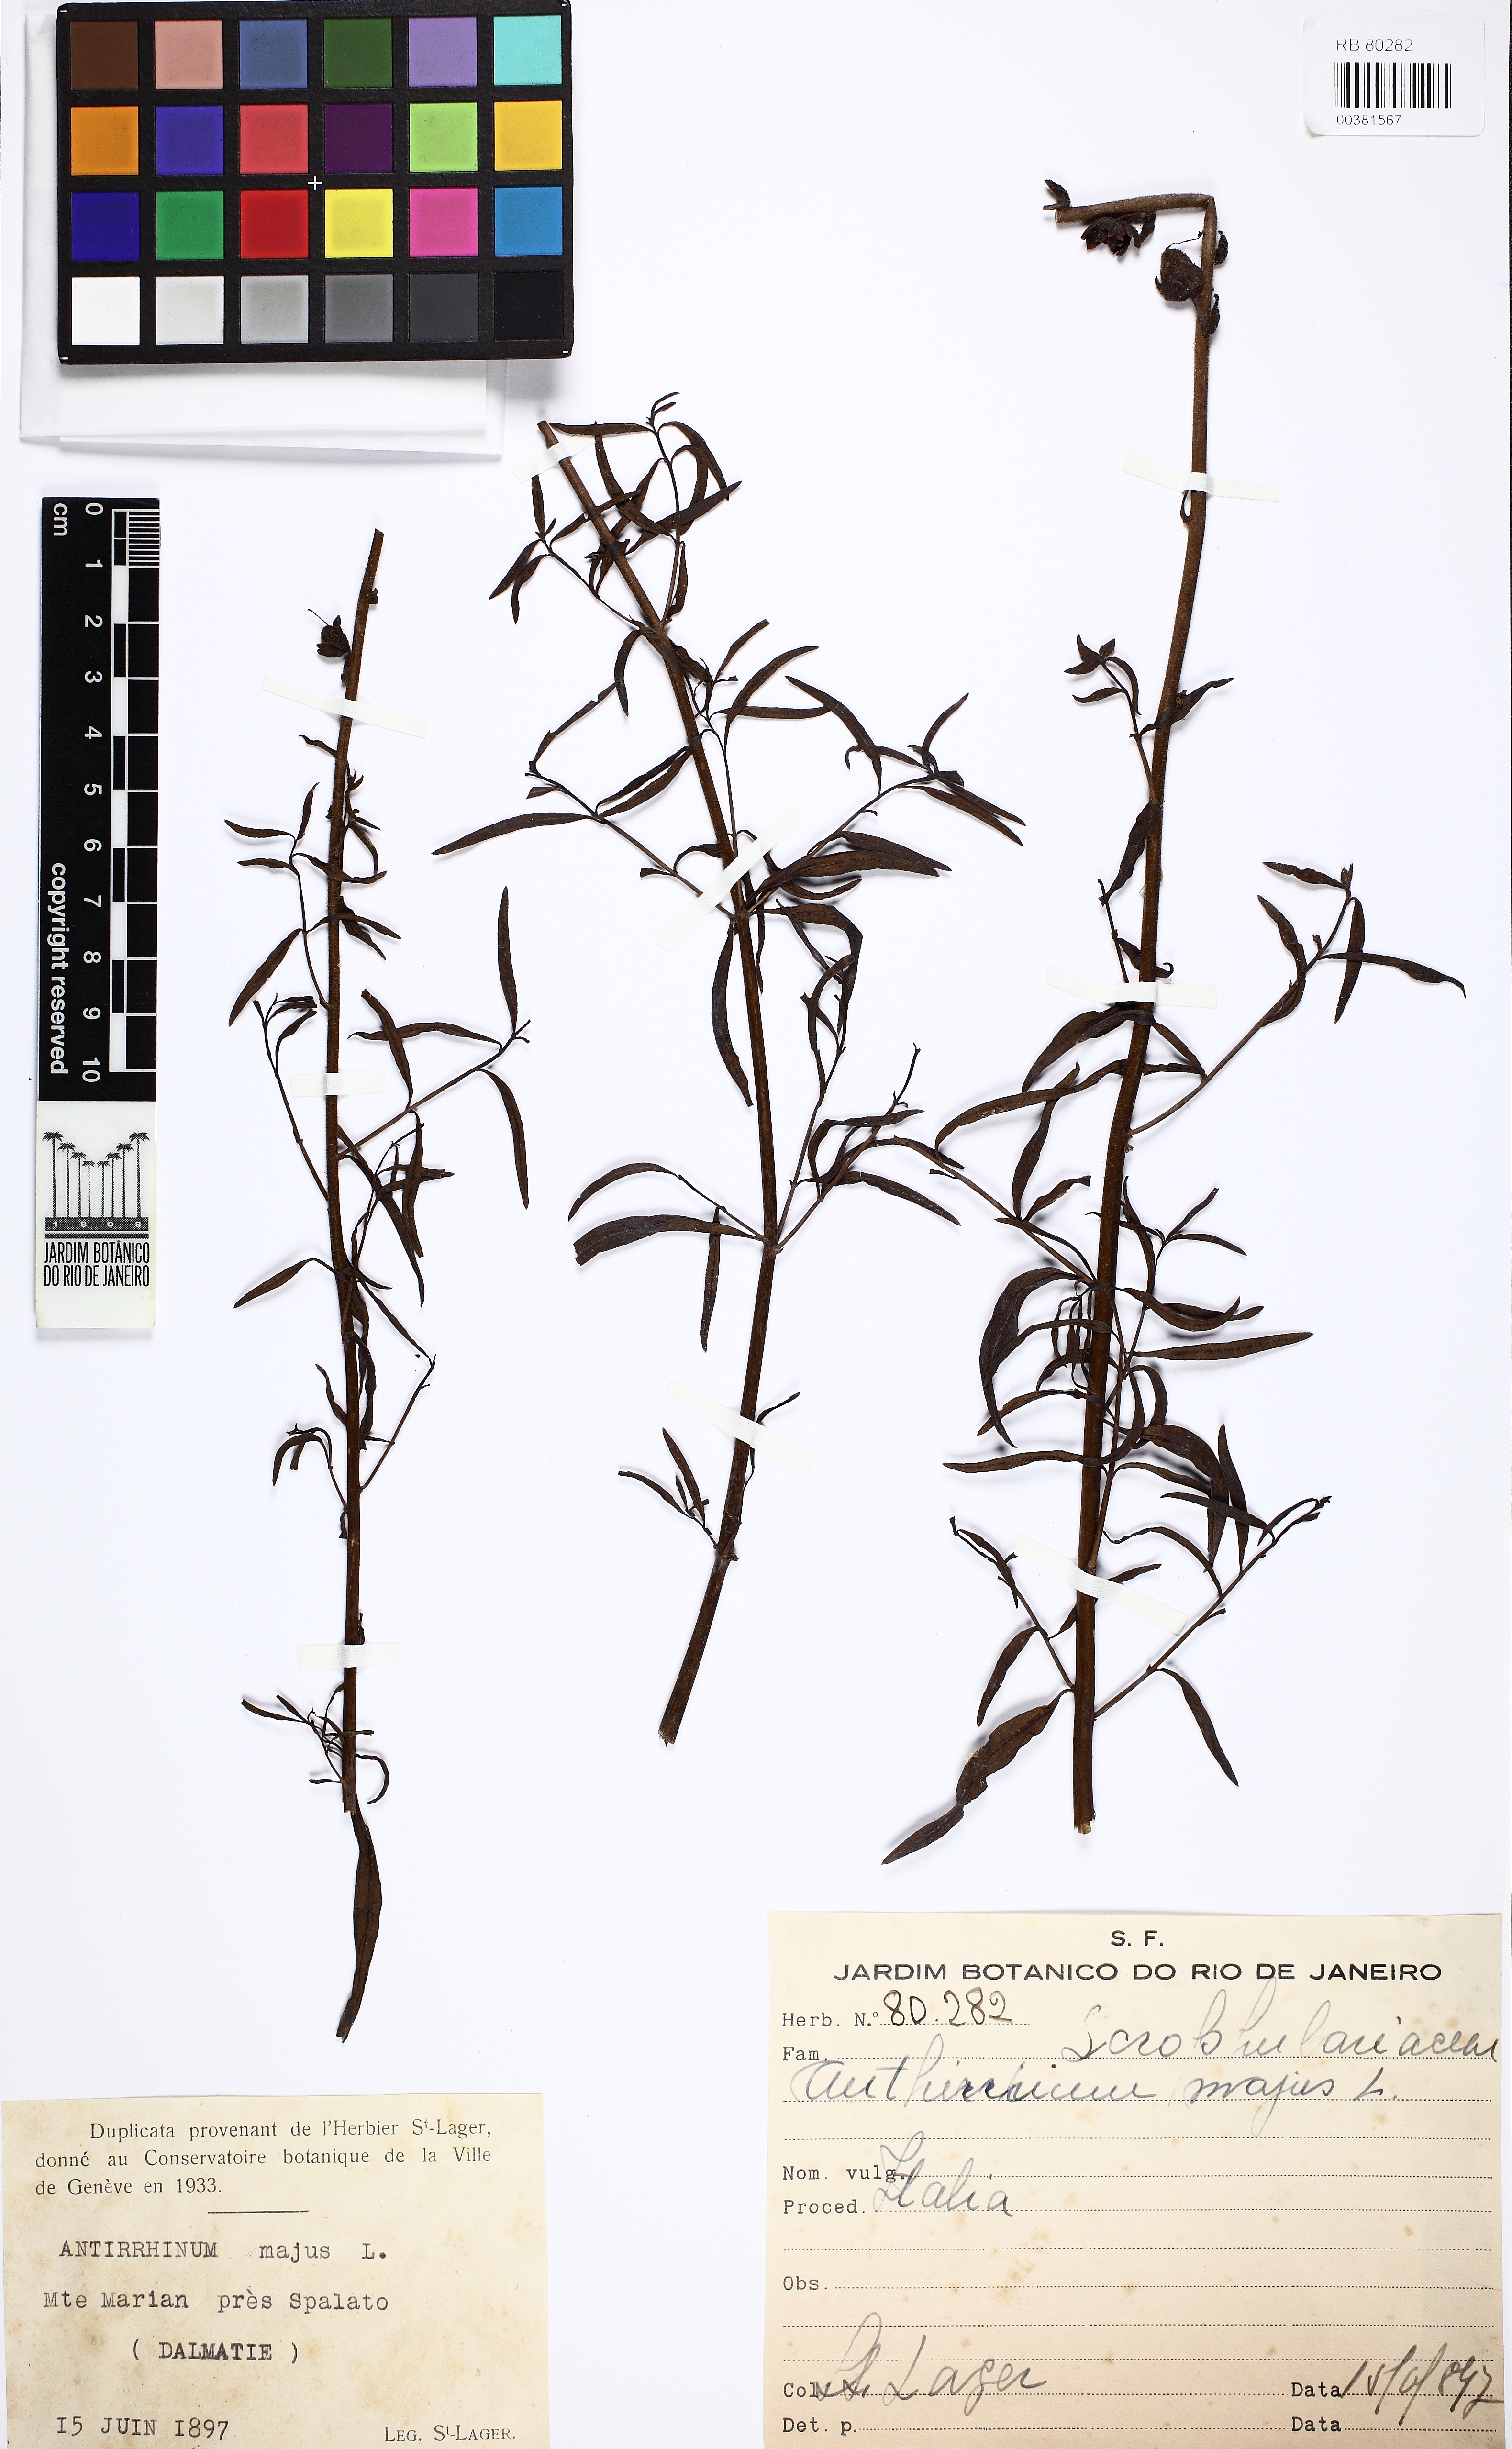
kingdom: Plantae
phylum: Tracheophyta
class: Magnoliopsida
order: Lamiales
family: Plantaginaceae
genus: Antirrhinum
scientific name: Antirrhinum majus
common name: Snapdragon
